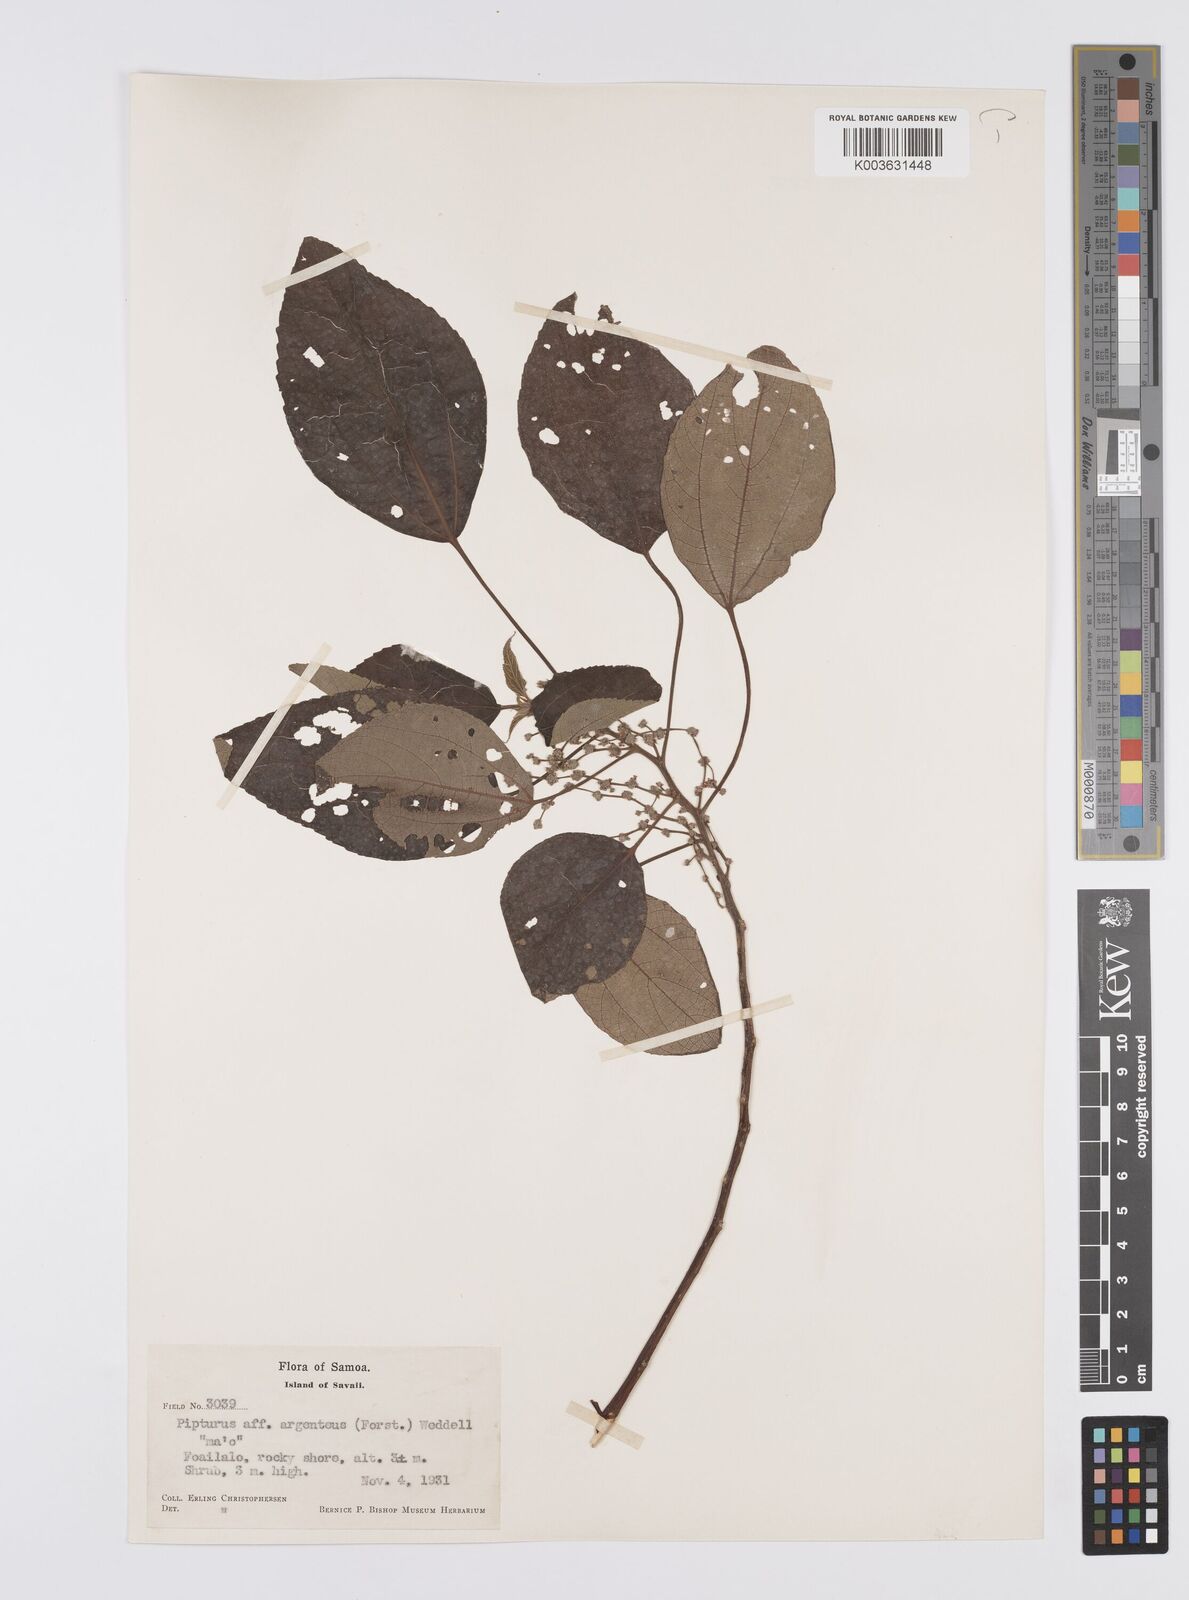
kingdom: Plantae
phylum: Tracheophyta
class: Magnoliopsida
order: Rosales
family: Urticaceae
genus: Pipturus
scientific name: Pipturus argenteus
